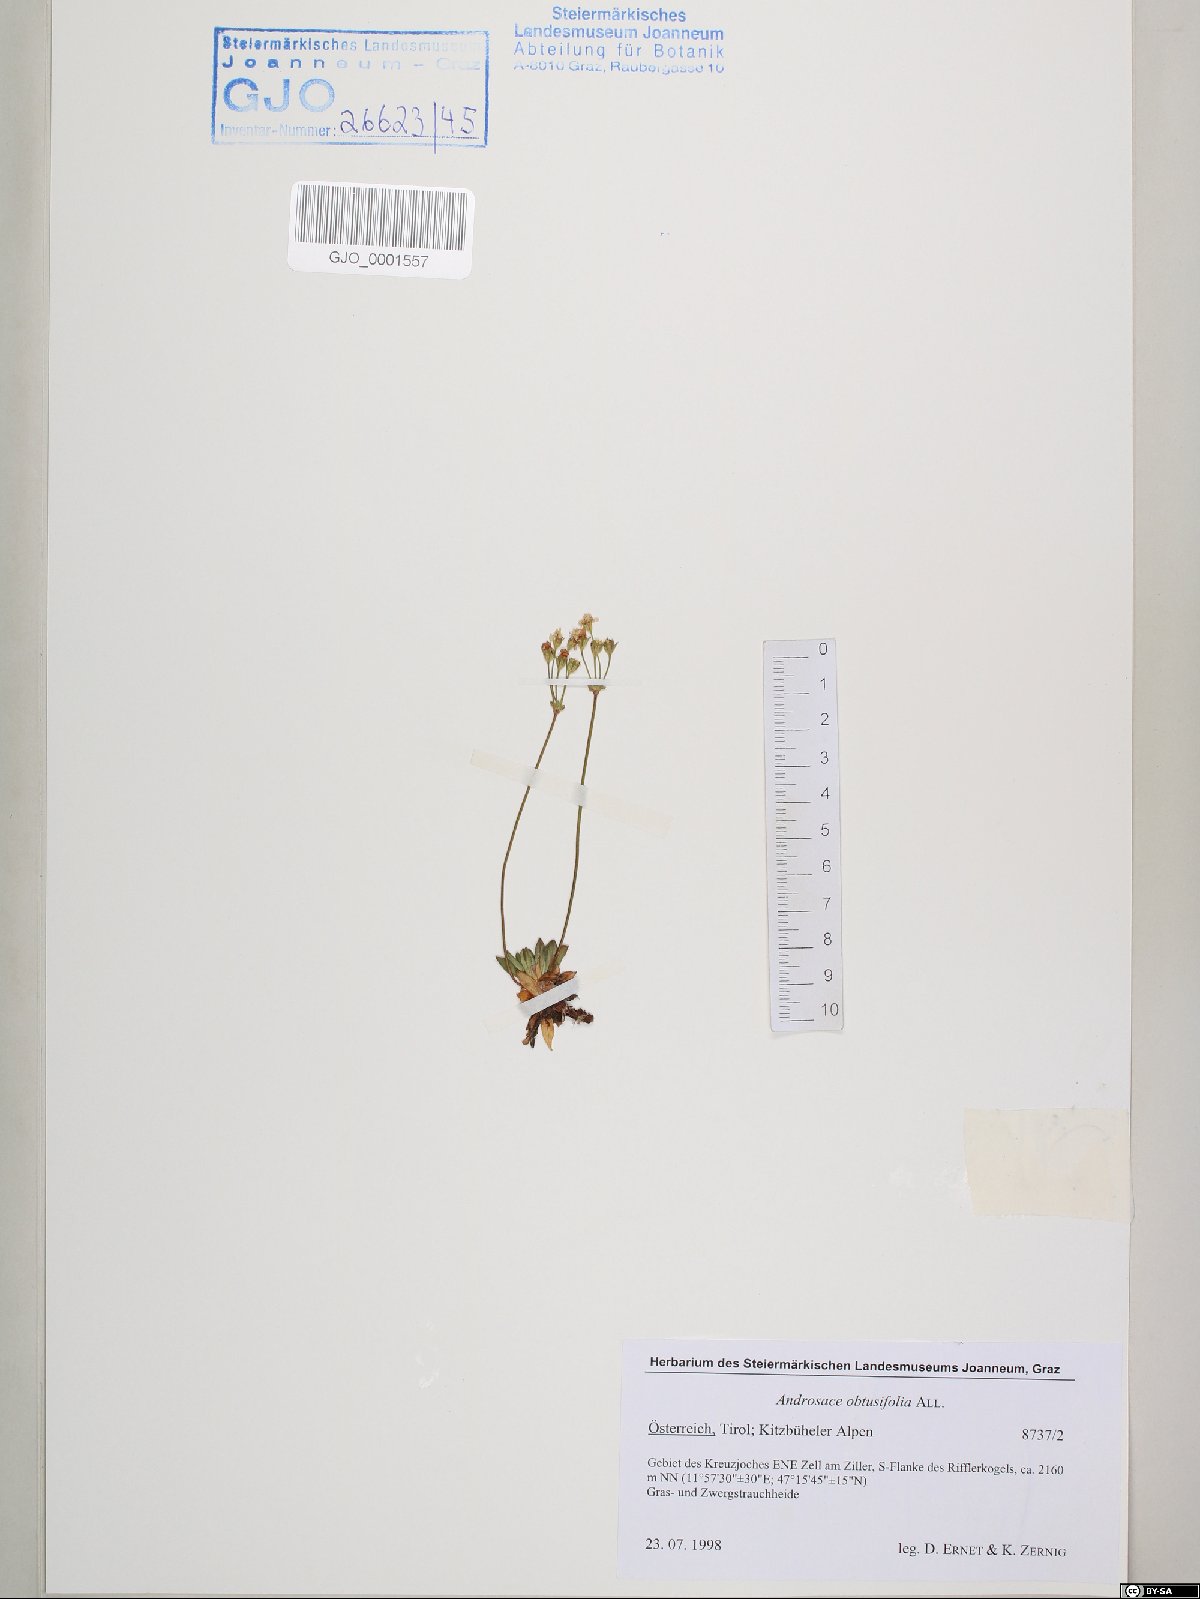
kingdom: Plantae
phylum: Tracheophyta
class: Magnoliopsida
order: Ericales
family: Primulaceae
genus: Androsace
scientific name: Androsace obtusifolia
